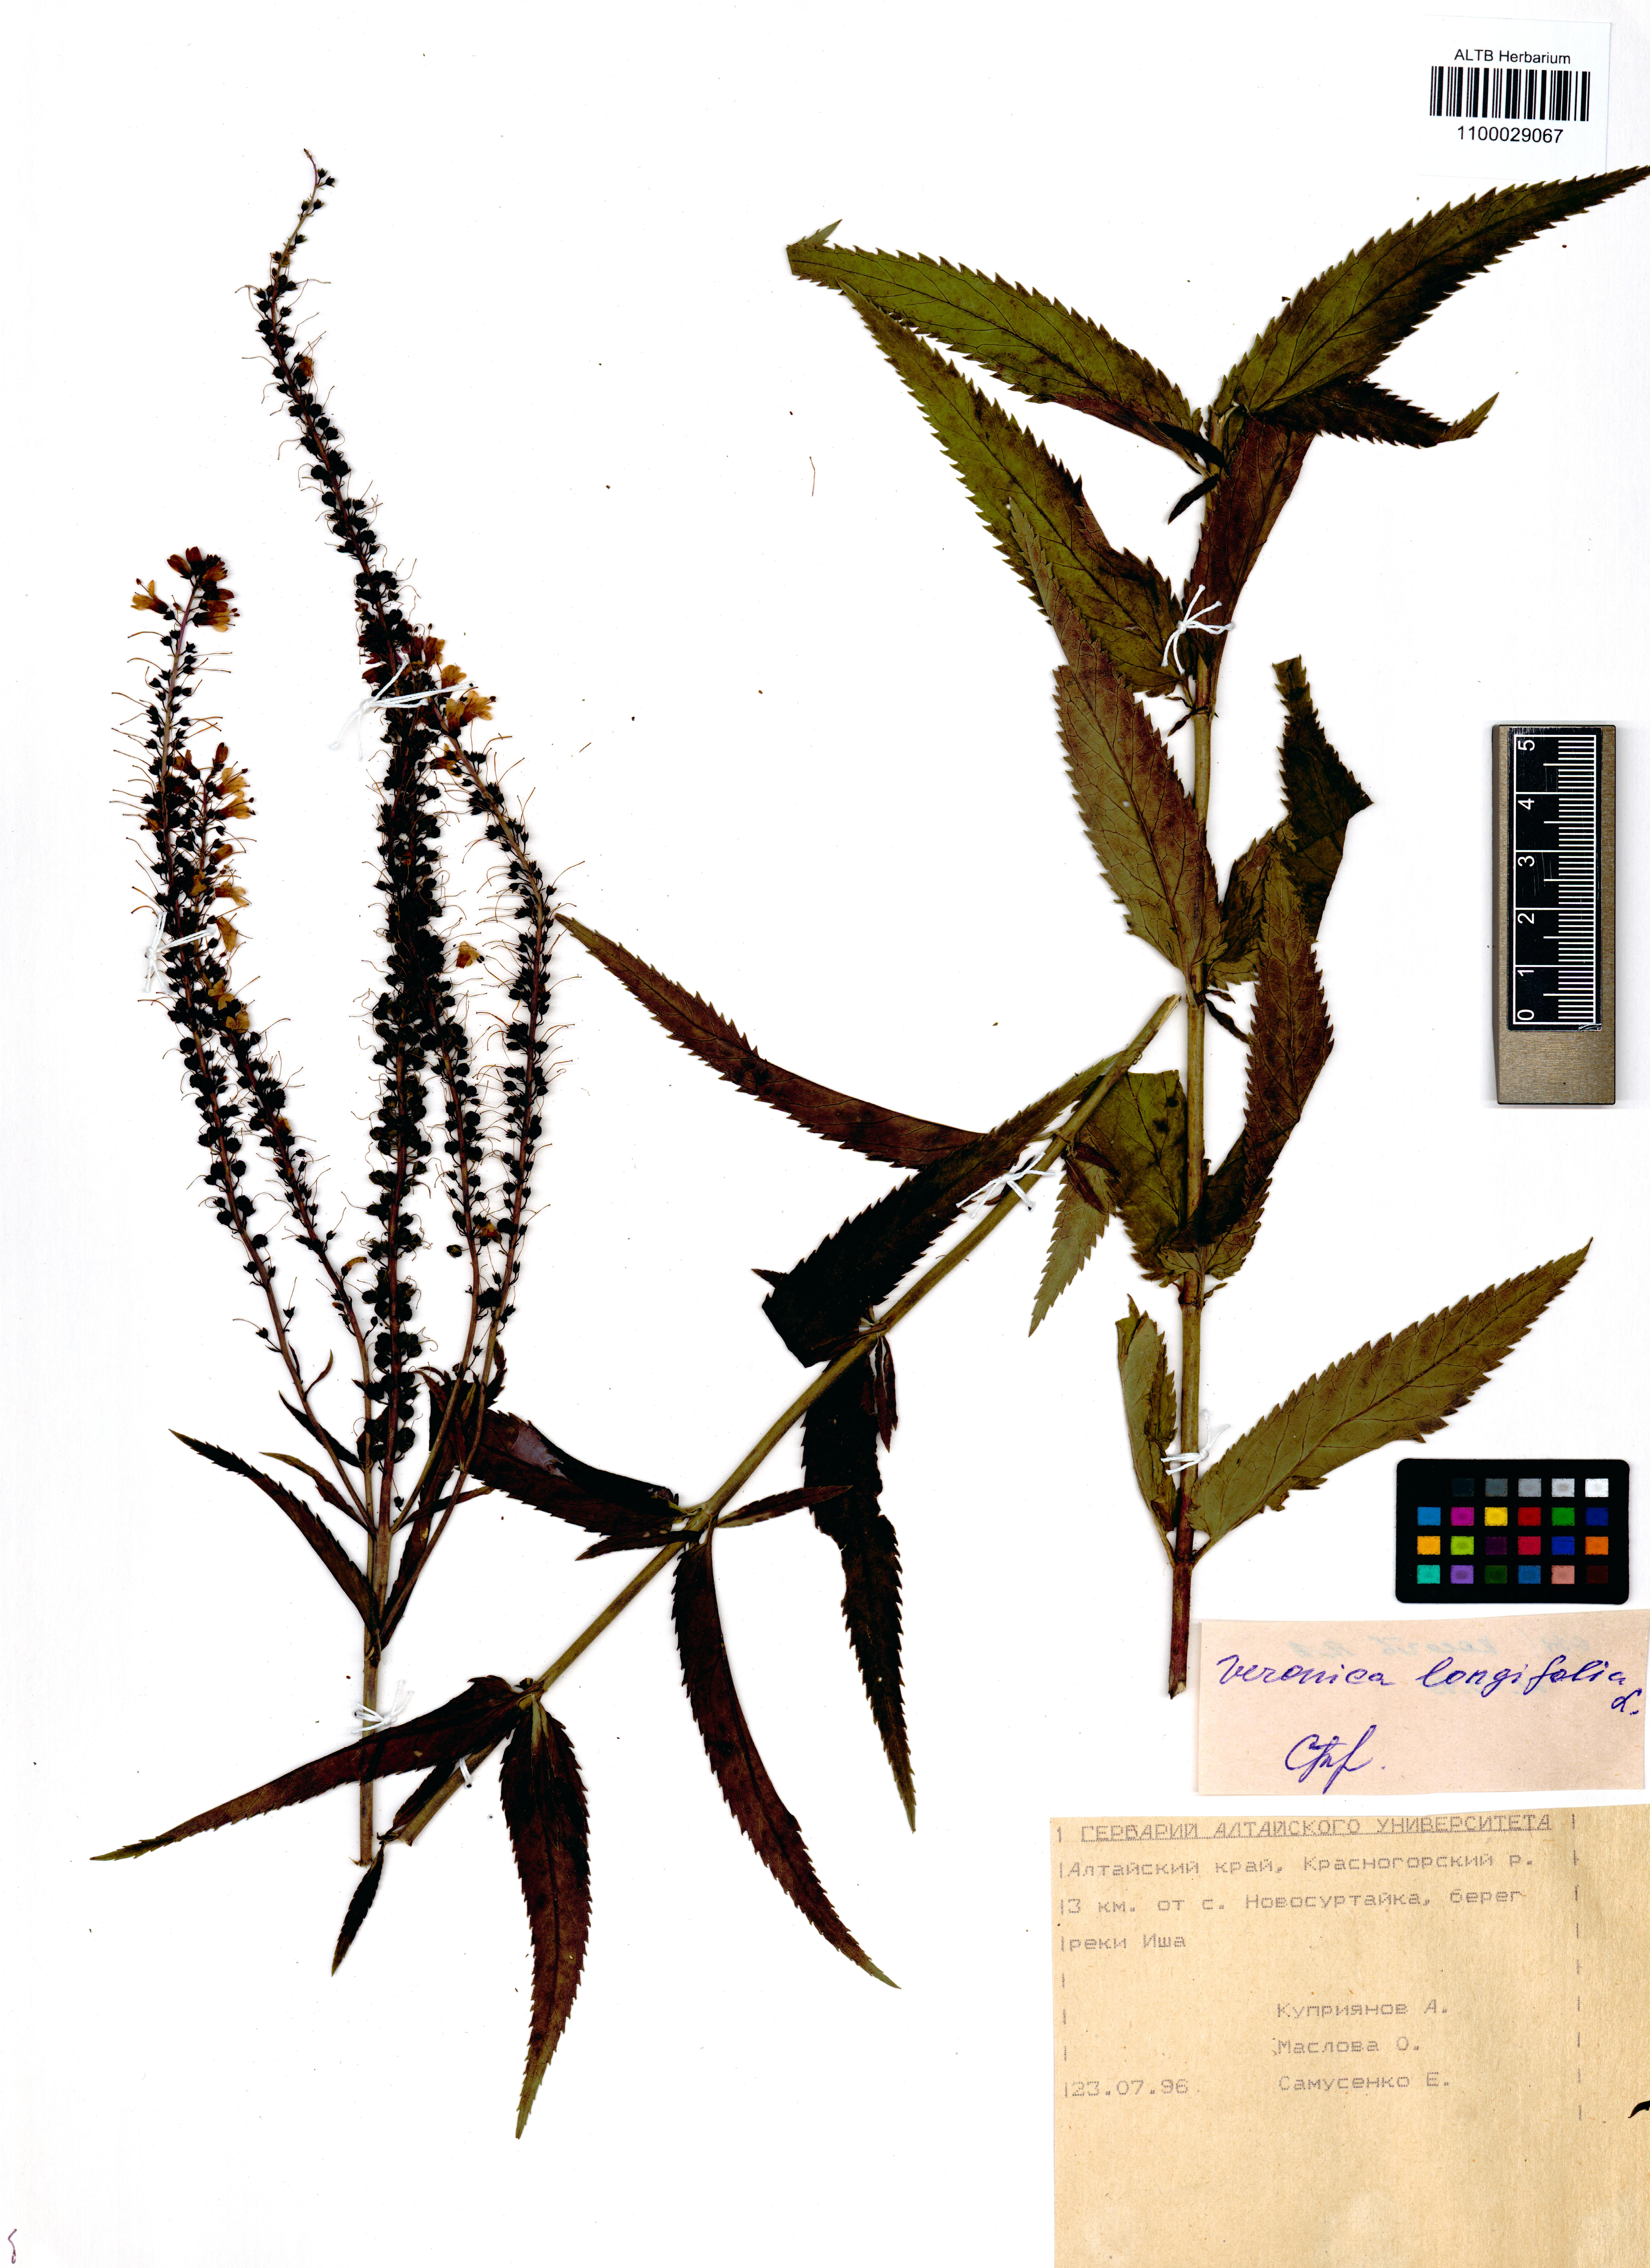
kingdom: Plantae
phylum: Tracheophyta
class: Magnoliopsida
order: Lamiales
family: Plantaginaceae
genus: Veronica
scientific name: Veronica longifolia
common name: Garden speedwell
